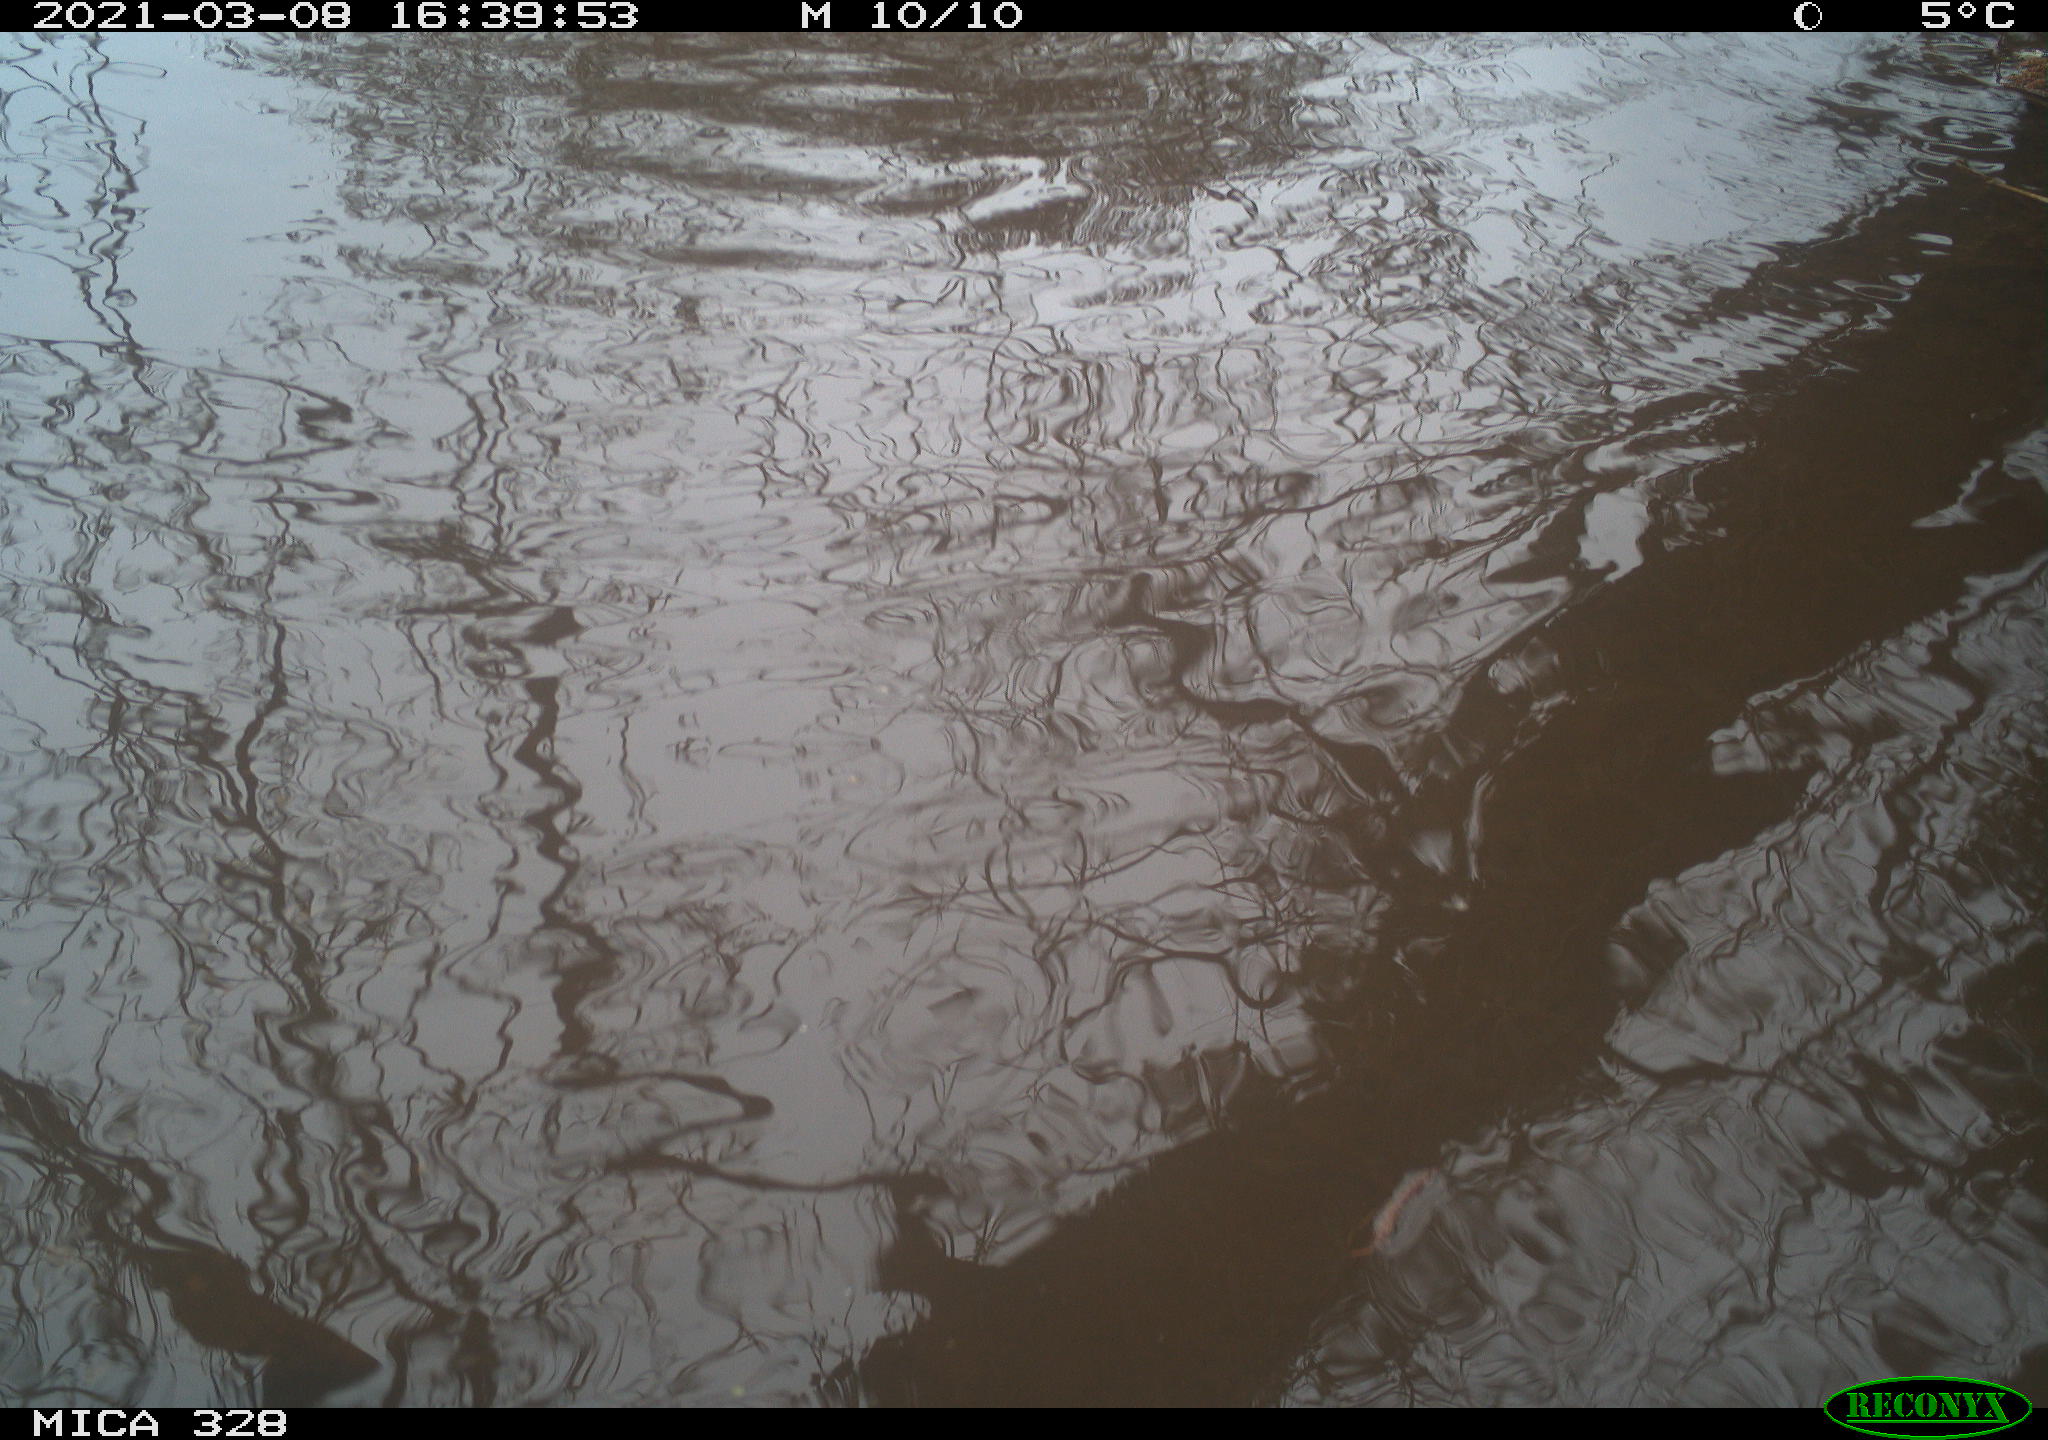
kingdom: Animalia
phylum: Chordata
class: Mammalia
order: Rodentia
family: Cricetidae
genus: Ondatra
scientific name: Ondatra zibethicus
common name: Muskrat
